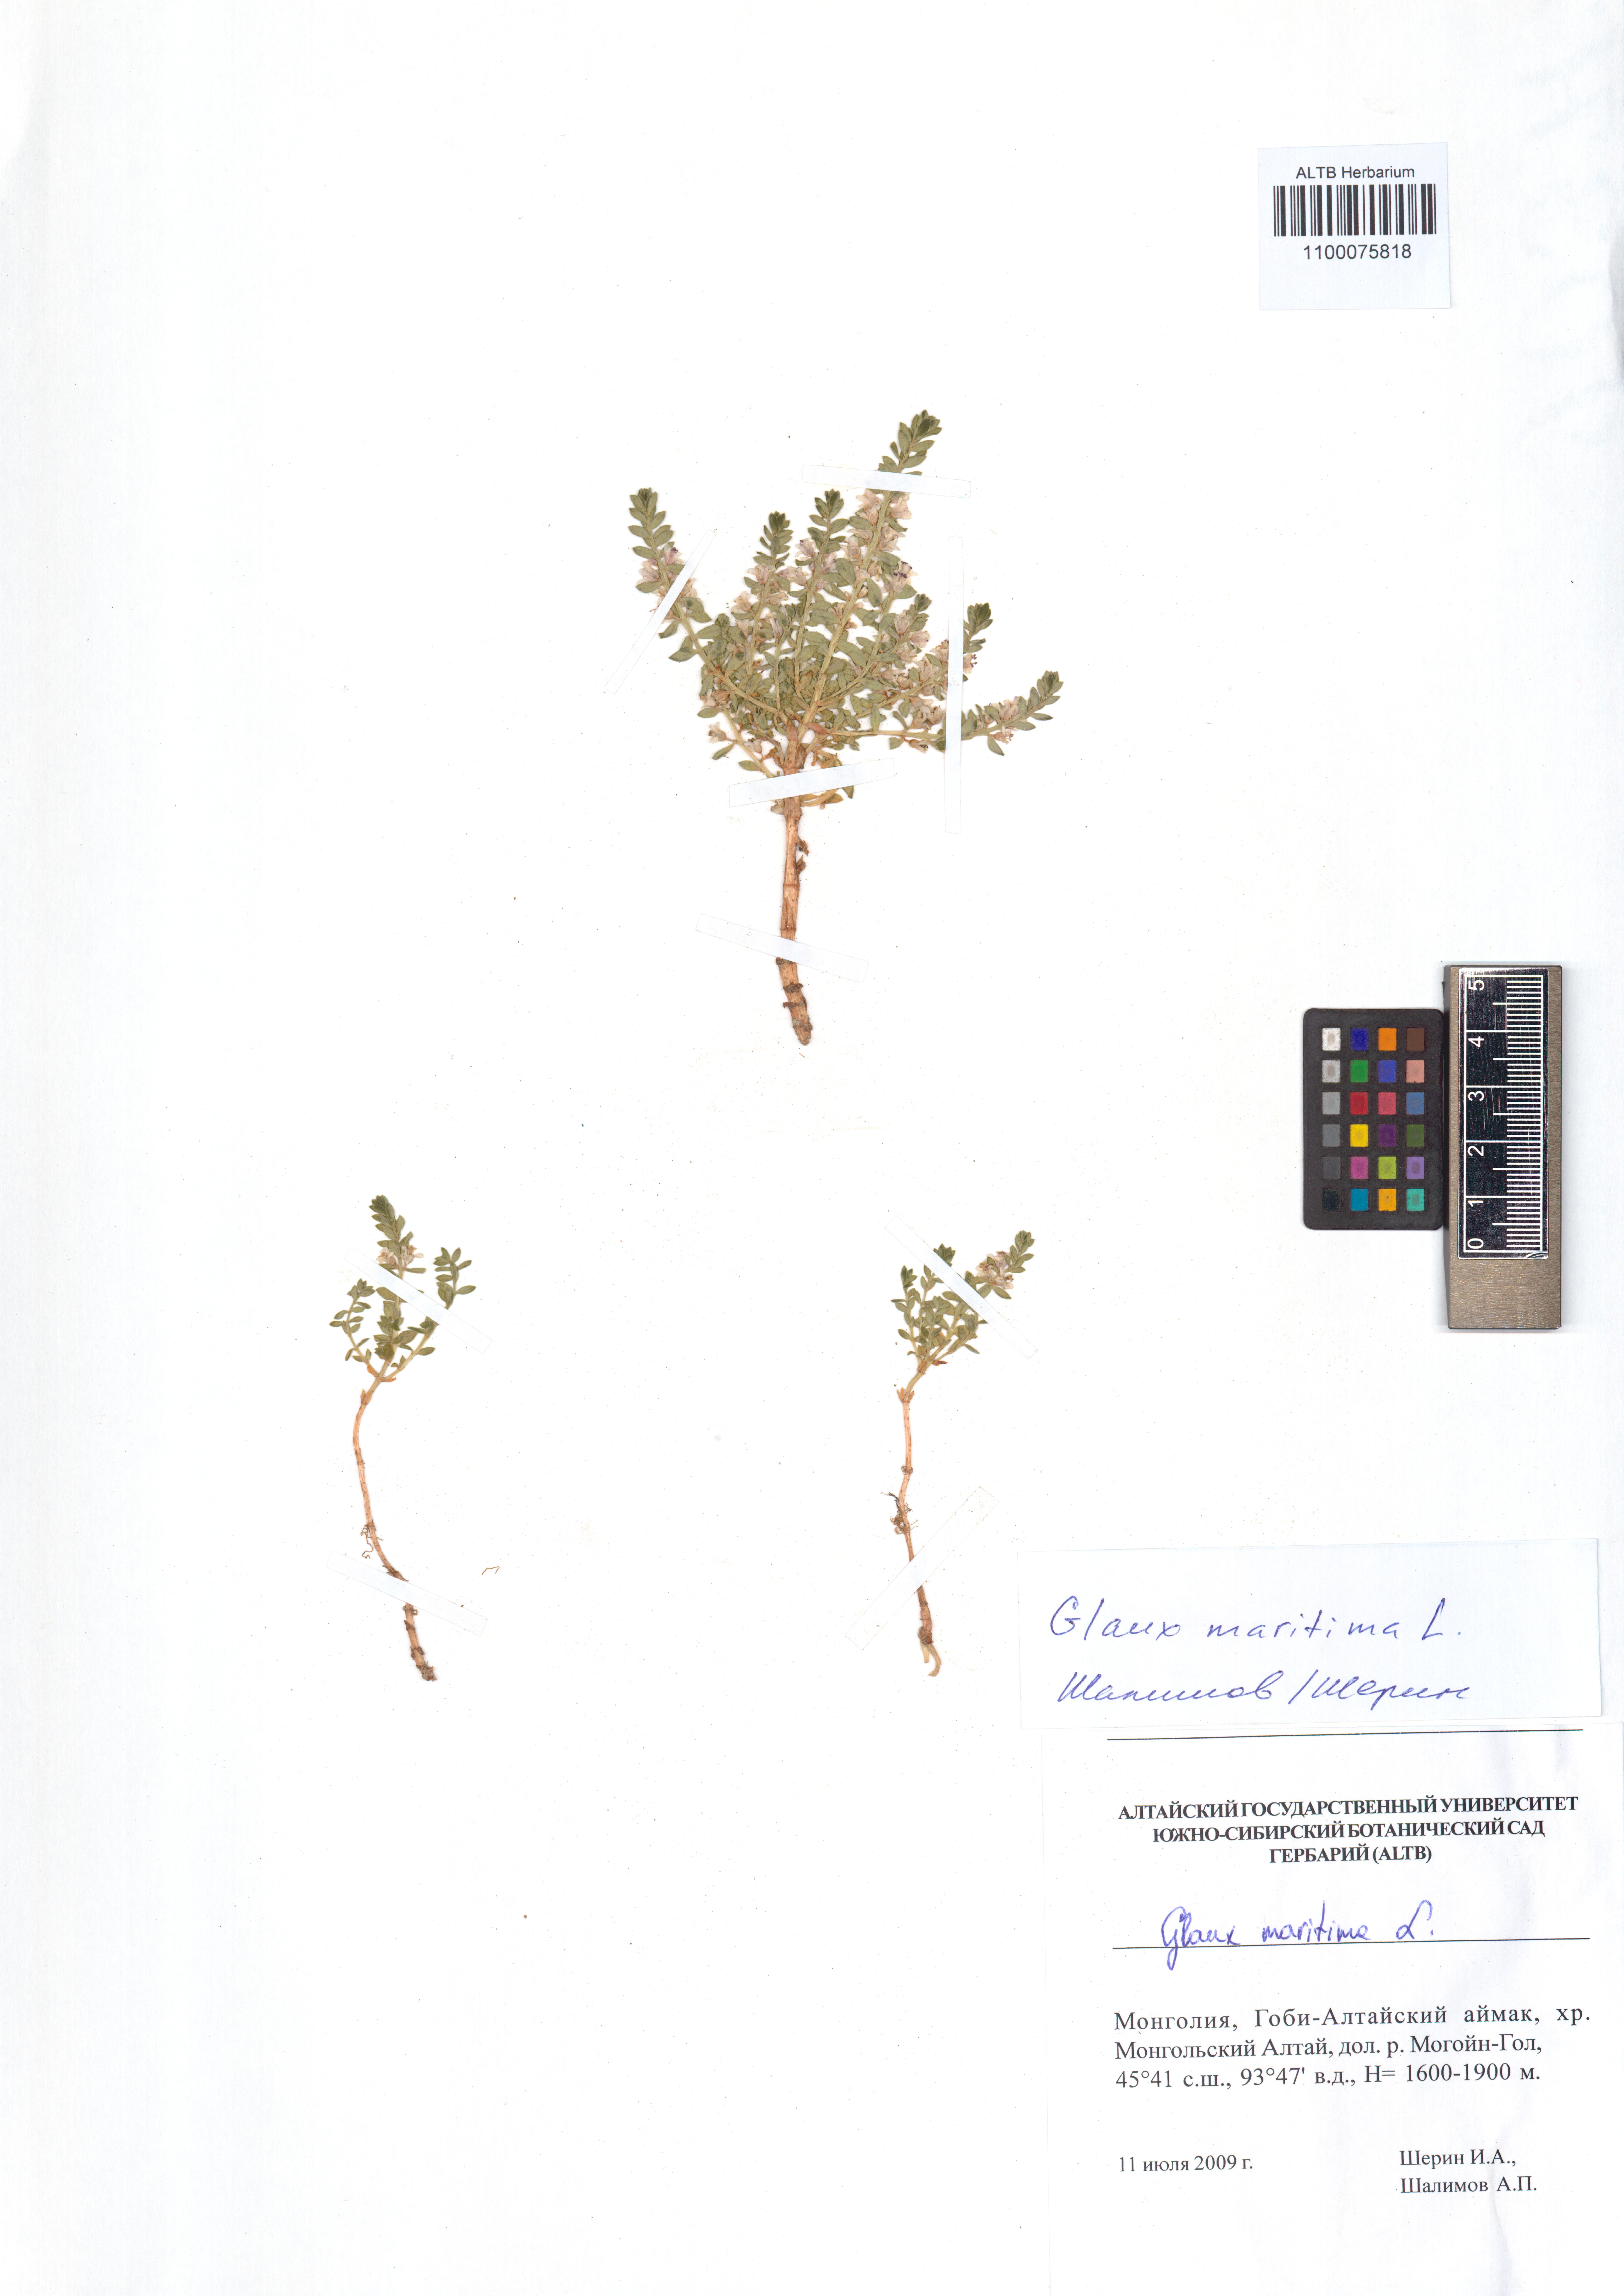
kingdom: Plantae
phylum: Tracheophyta
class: Magnoliopsida
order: Ericales
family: Primulaceae
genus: Lysimachia
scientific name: Lysimachia maritima
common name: Sea milkwort
